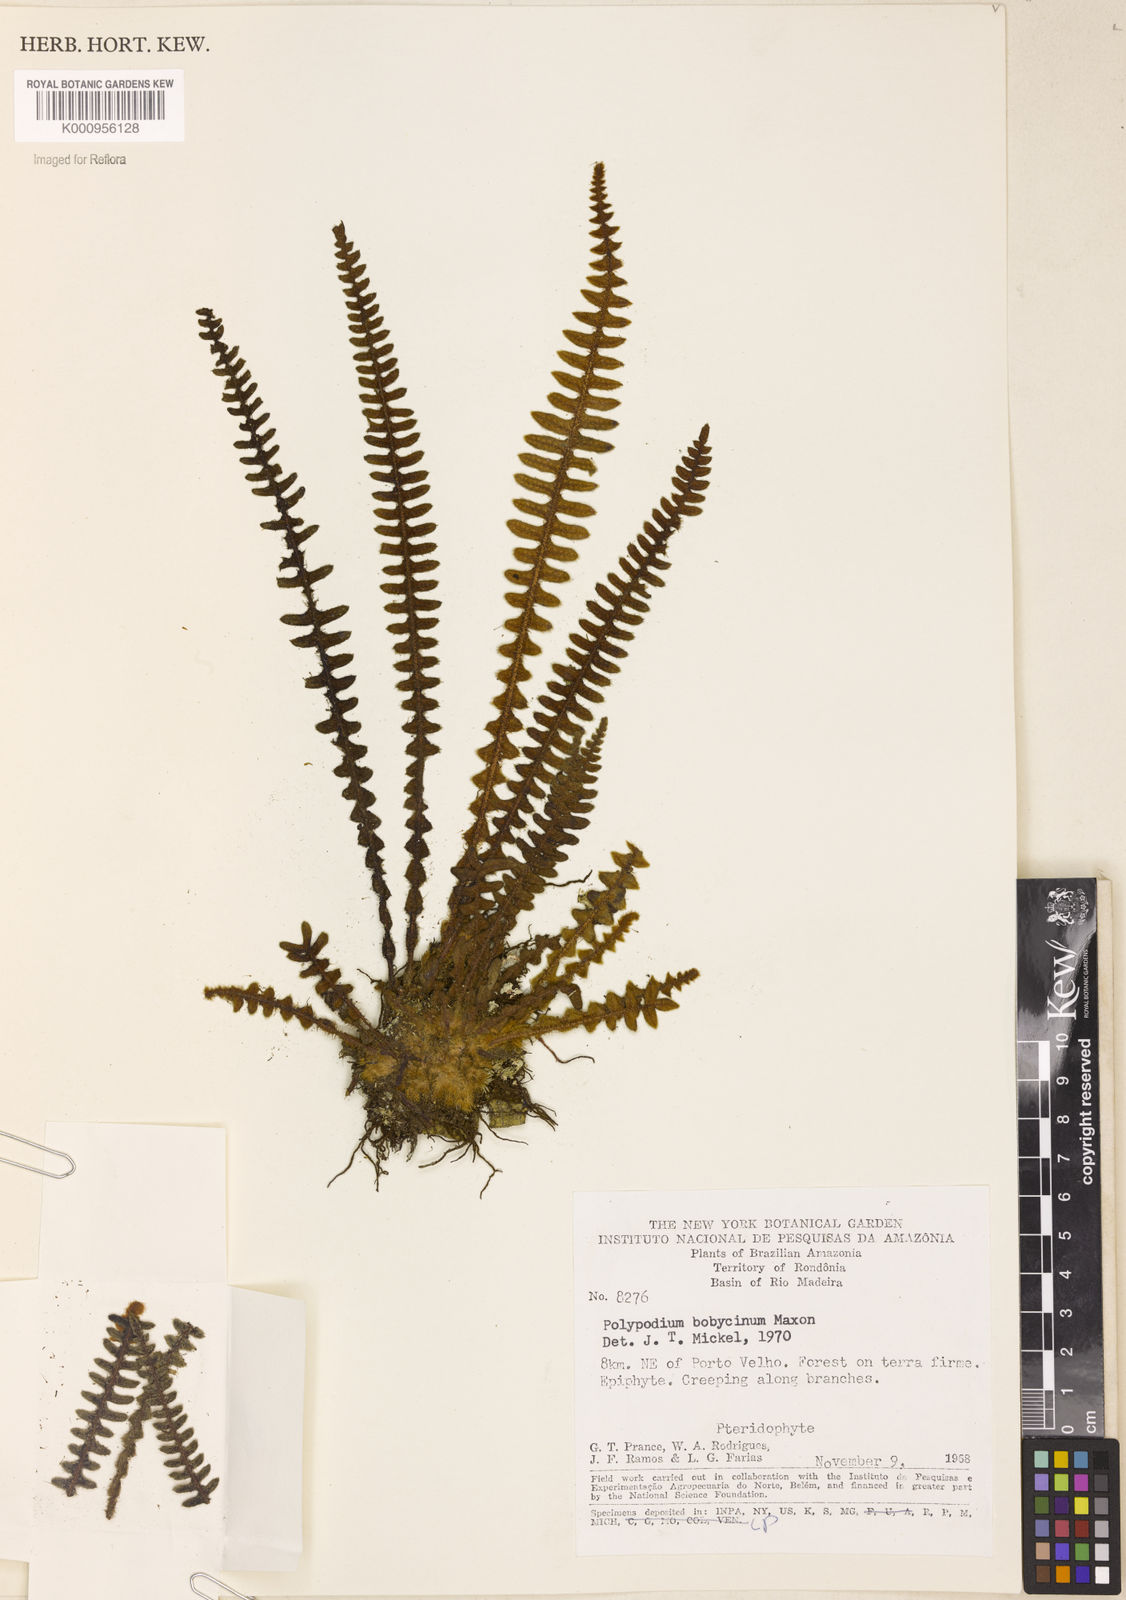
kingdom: Plantae
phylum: Tracheophyta
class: Polypodiopsida
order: Polypodiales
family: Polypodiaceae
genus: Pleopeltis
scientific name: Pleopeltis bombycina
